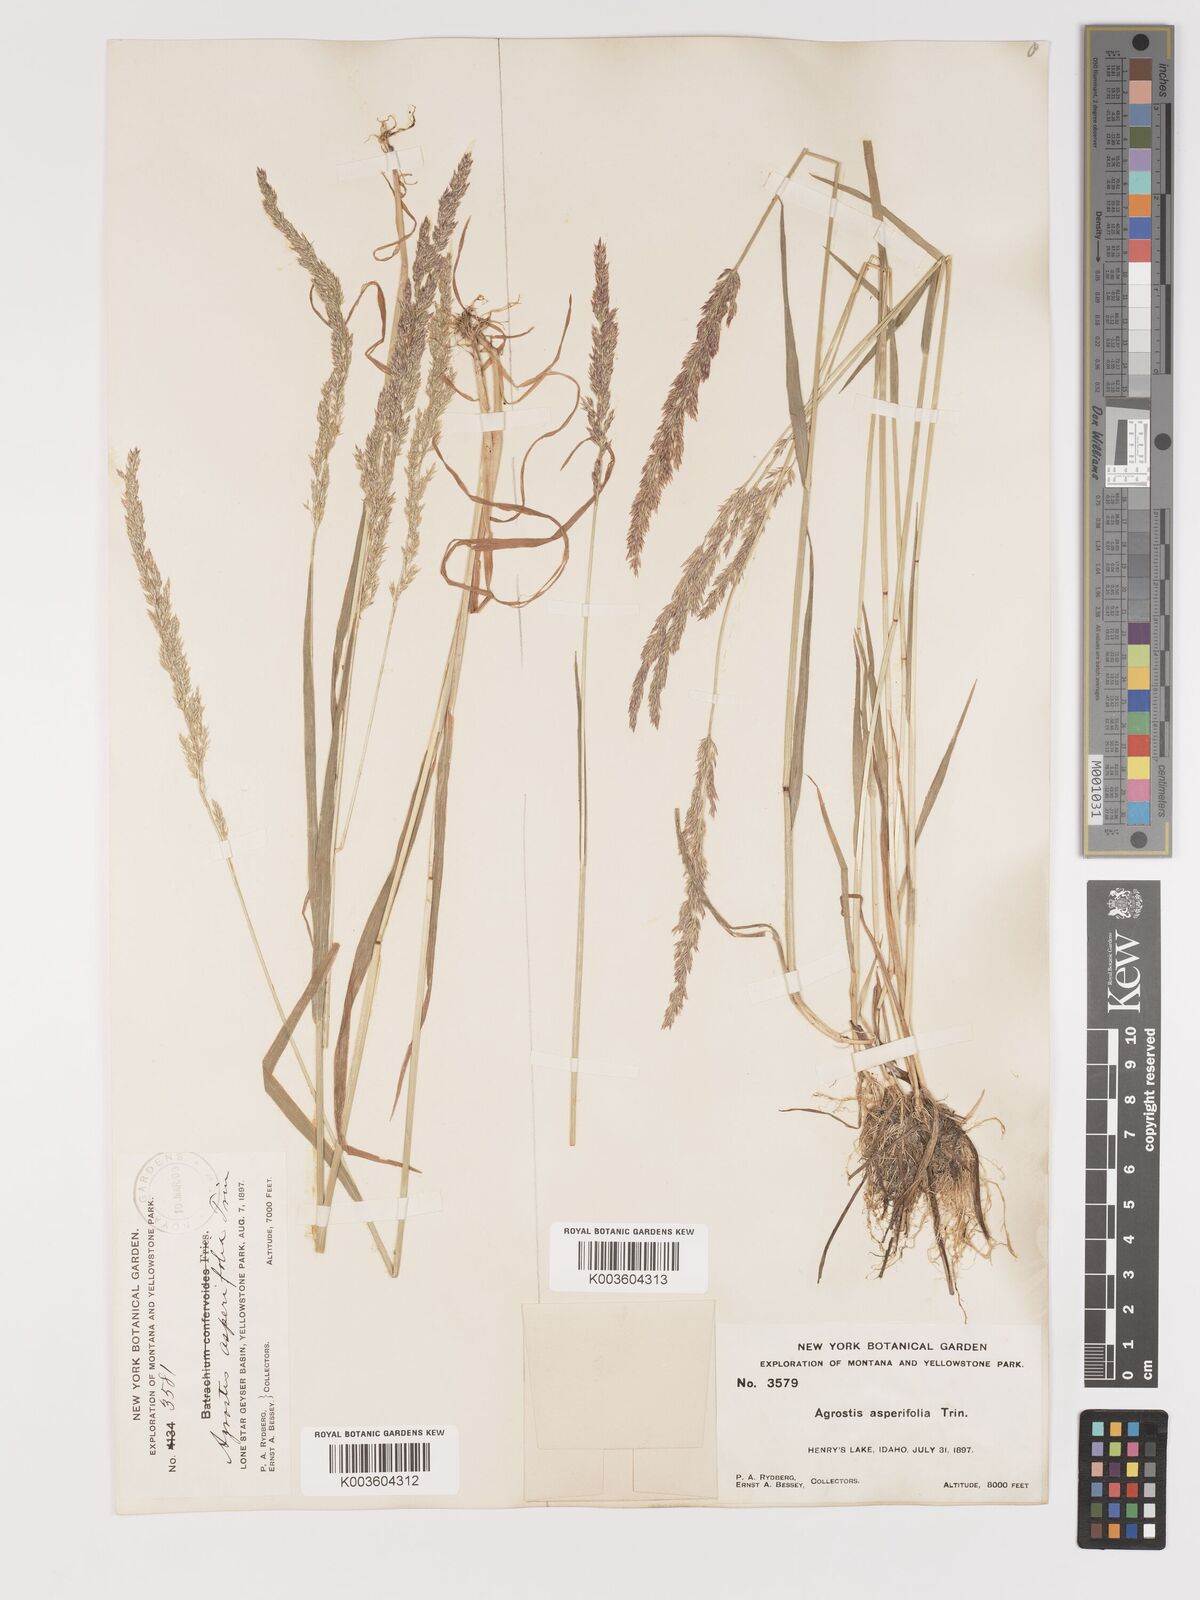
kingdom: Plantae
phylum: Tracheophyta
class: Liliopsida
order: Poales
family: Poaceae
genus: Agrostis
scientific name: Agrostis exarata
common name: Spike bent
